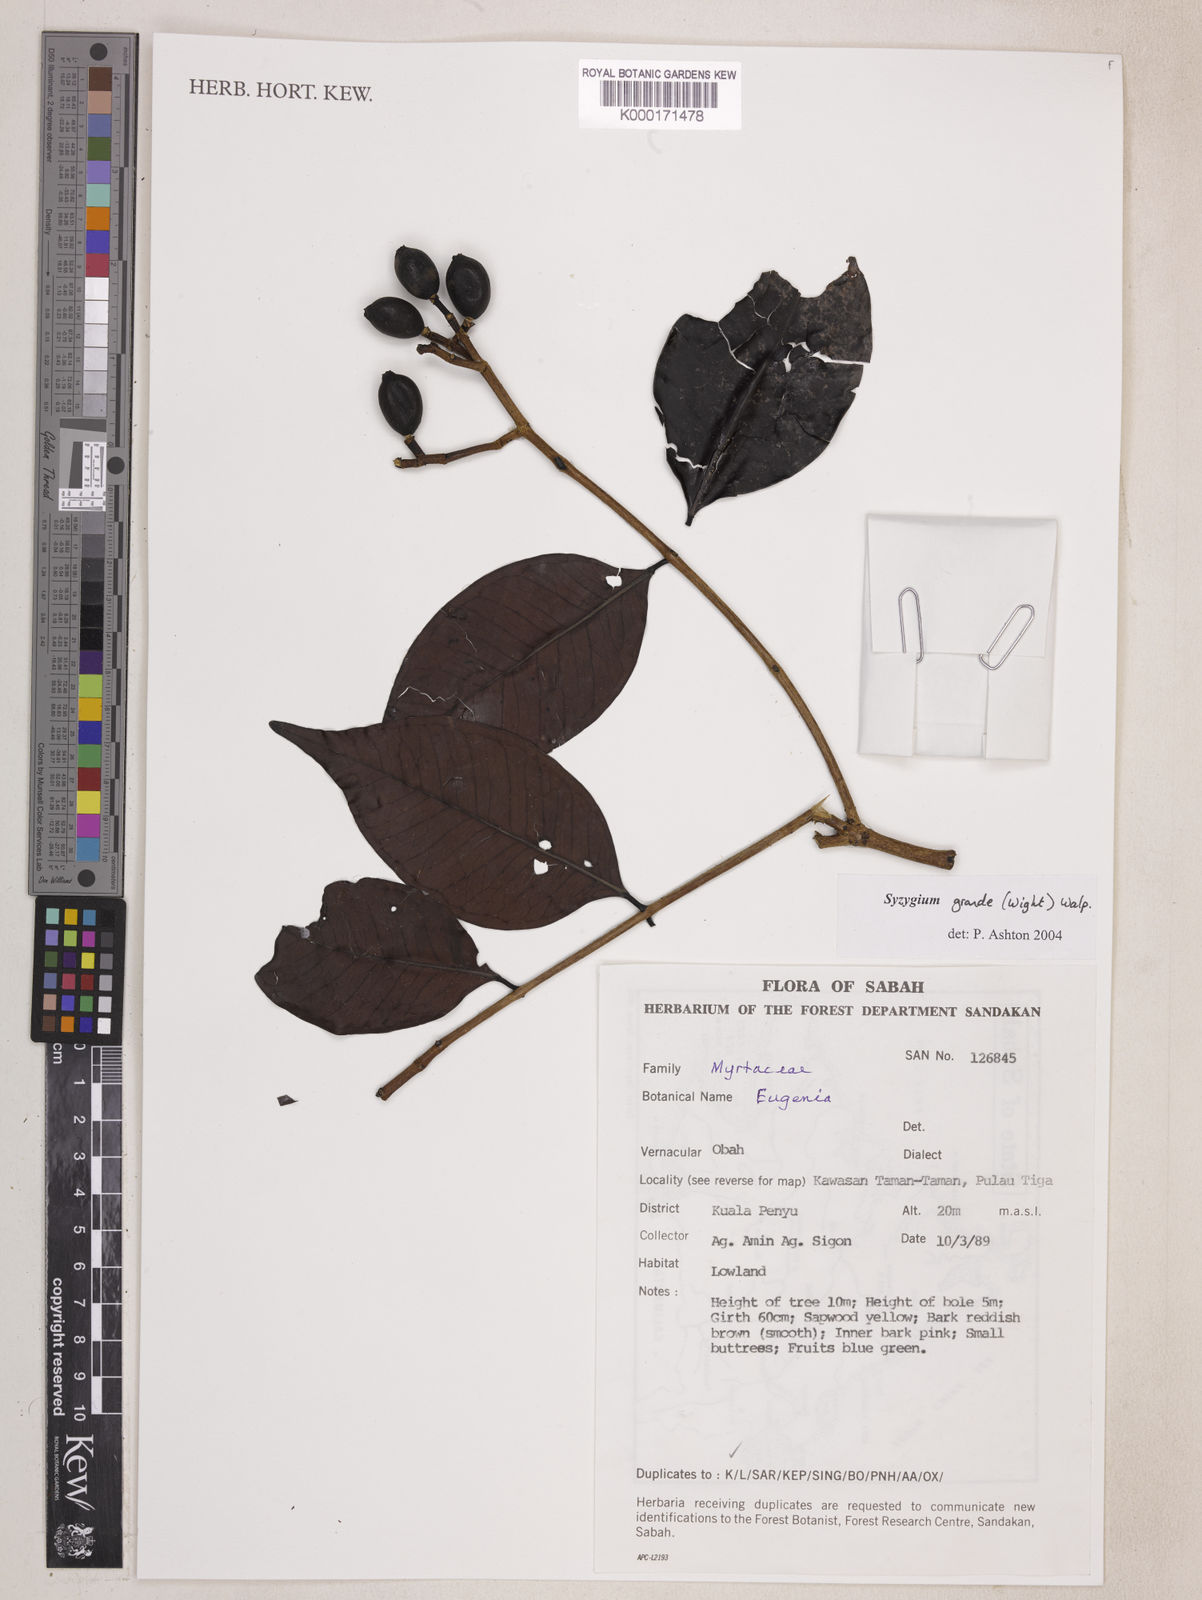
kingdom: Plantae
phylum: Tracheophyta
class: Magnoliopsida
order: Myrtales
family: Myrtaceae
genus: Syzygium
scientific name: Syzygium grande
